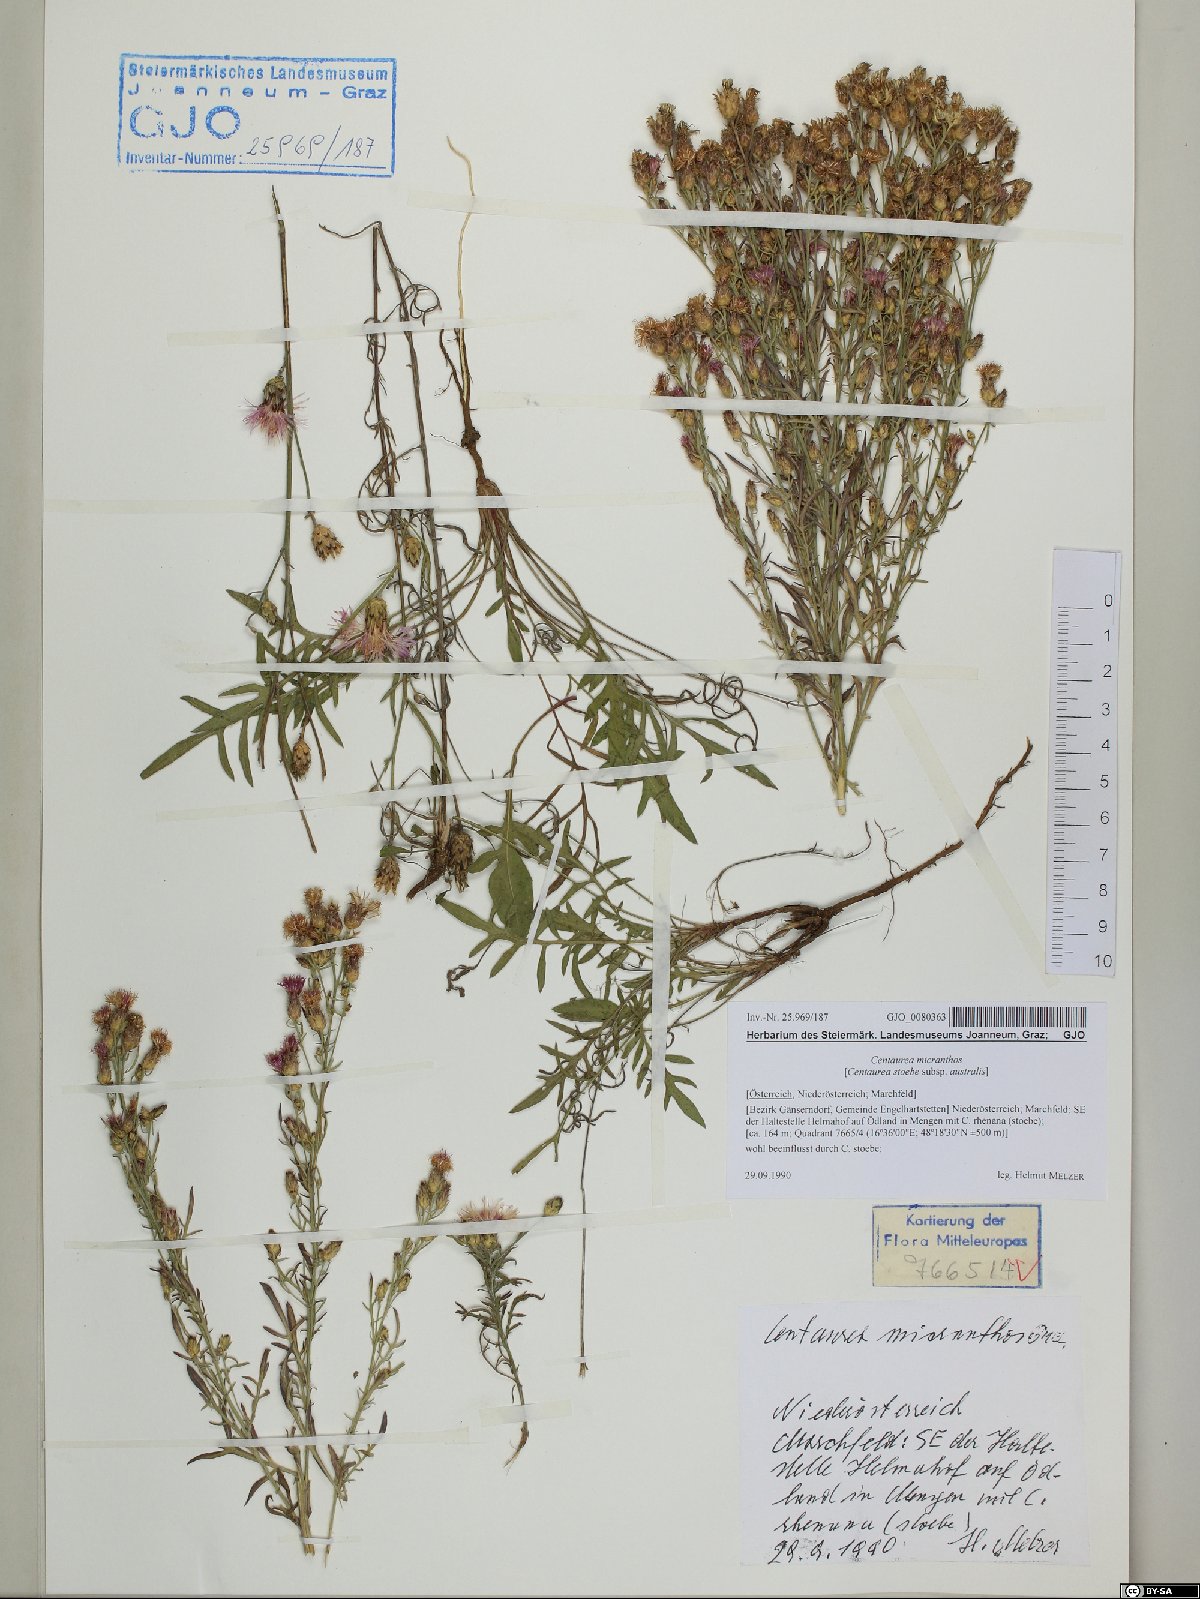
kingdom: Plantae
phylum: Tracheophyta
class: Magnoliopsida
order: Asterales
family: Asteraceae
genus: Centaurea
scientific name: Centaurea micranthos
